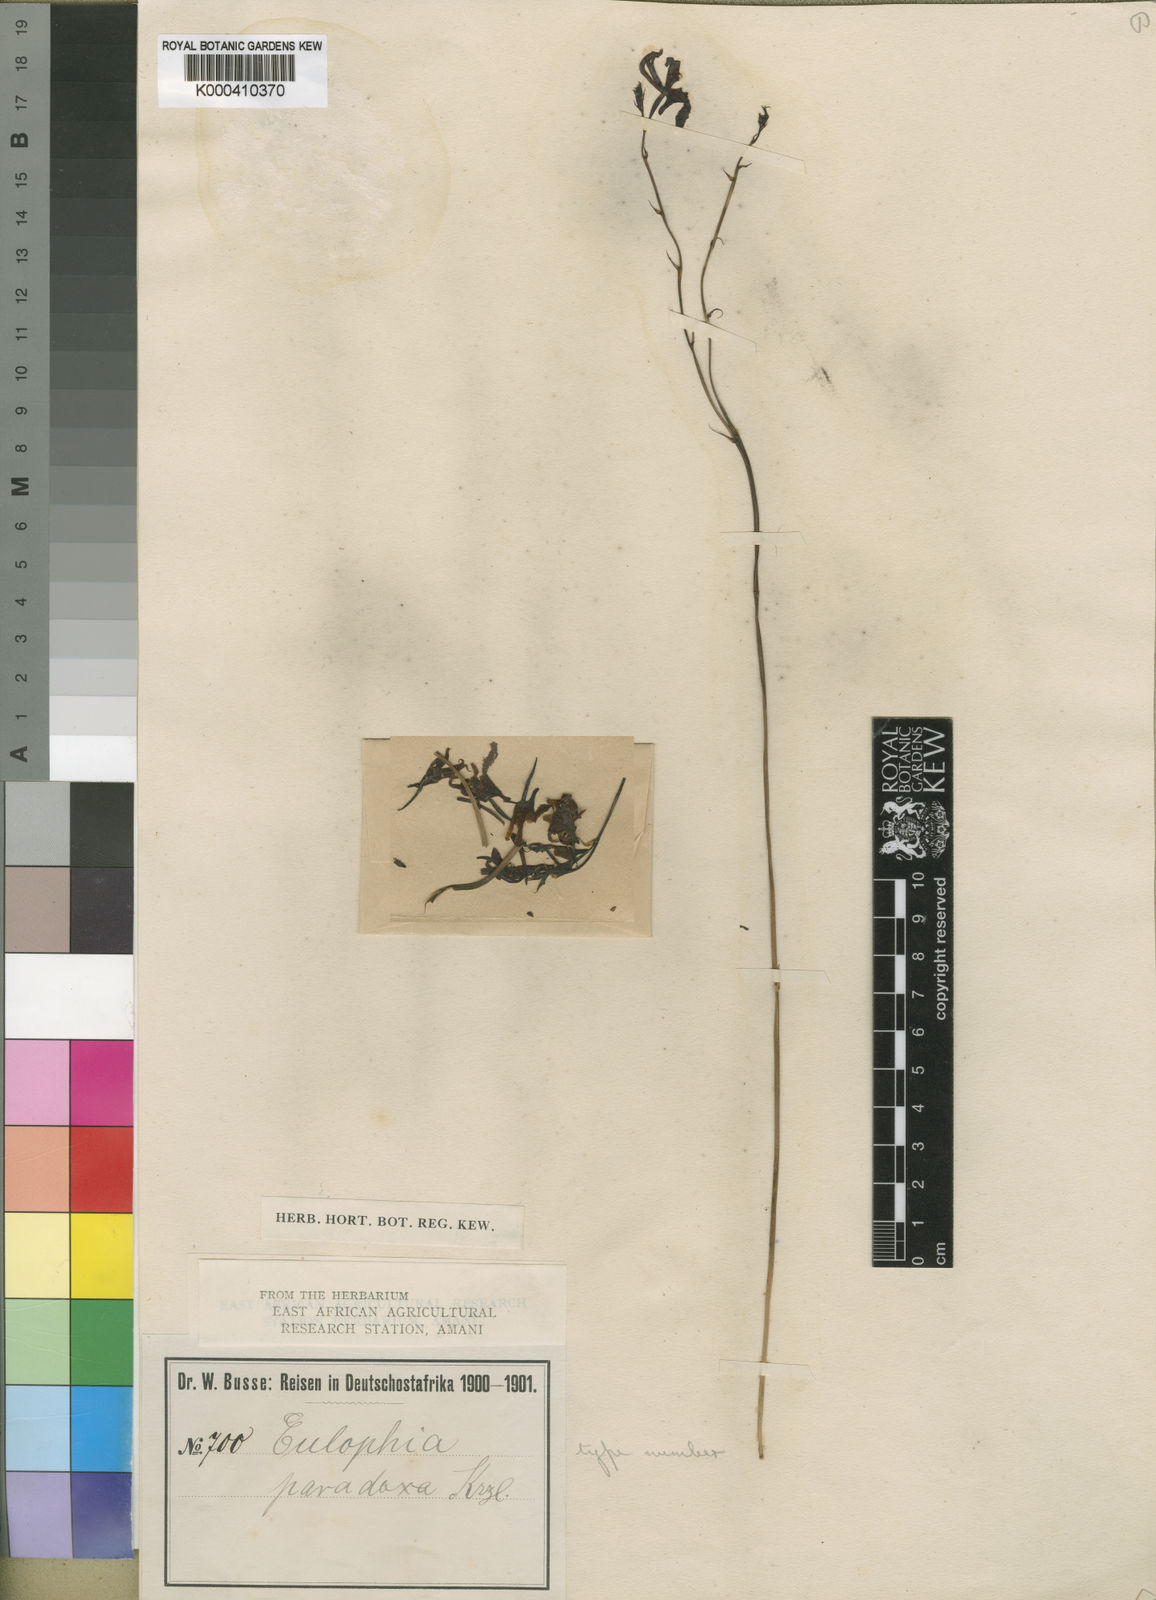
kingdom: Plantae
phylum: Tracheophyta
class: Liliopsida
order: Asparagales
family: Orchidaceae
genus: Eulophia
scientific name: Eulophia venulosa
